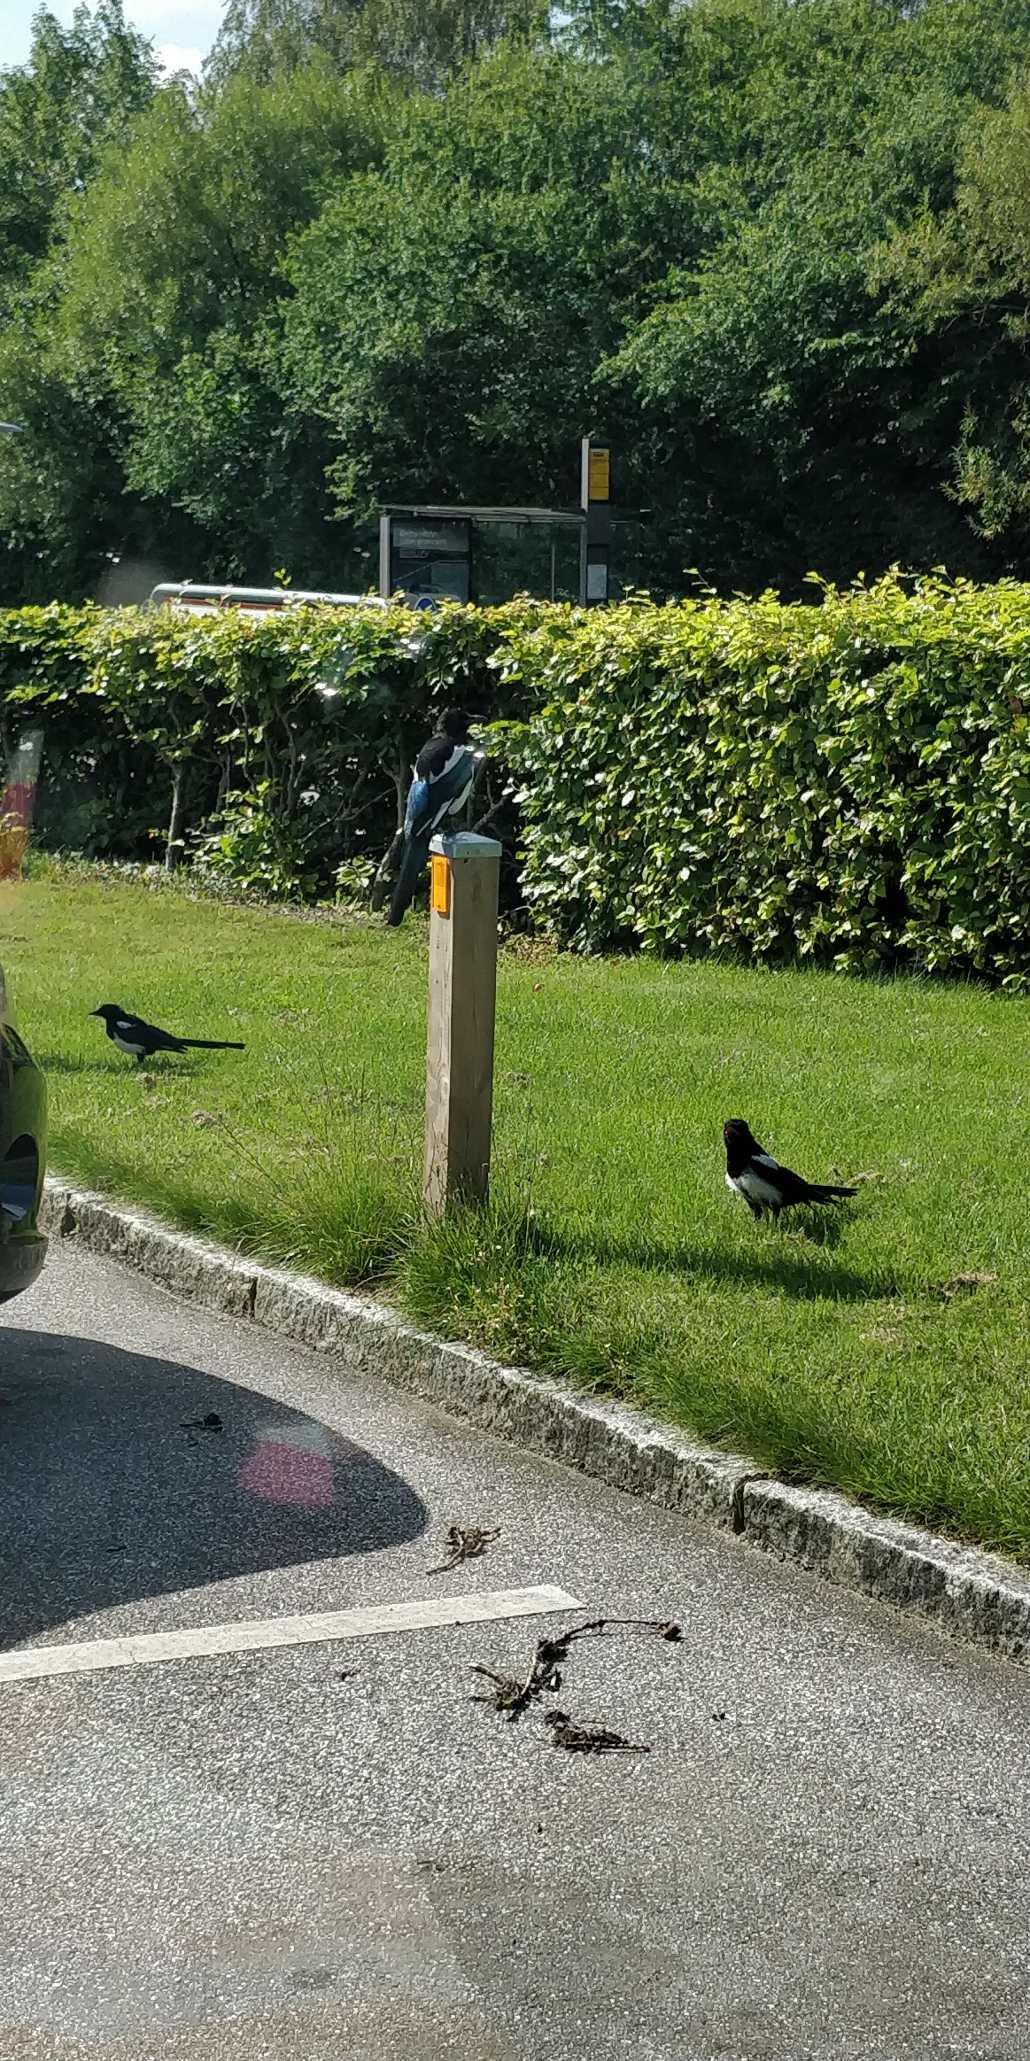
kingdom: Animalia
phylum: Chordata
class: Aves
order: Passeriformes
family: Corvidae
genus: Pica
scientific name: Pica pica
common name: Husskade
